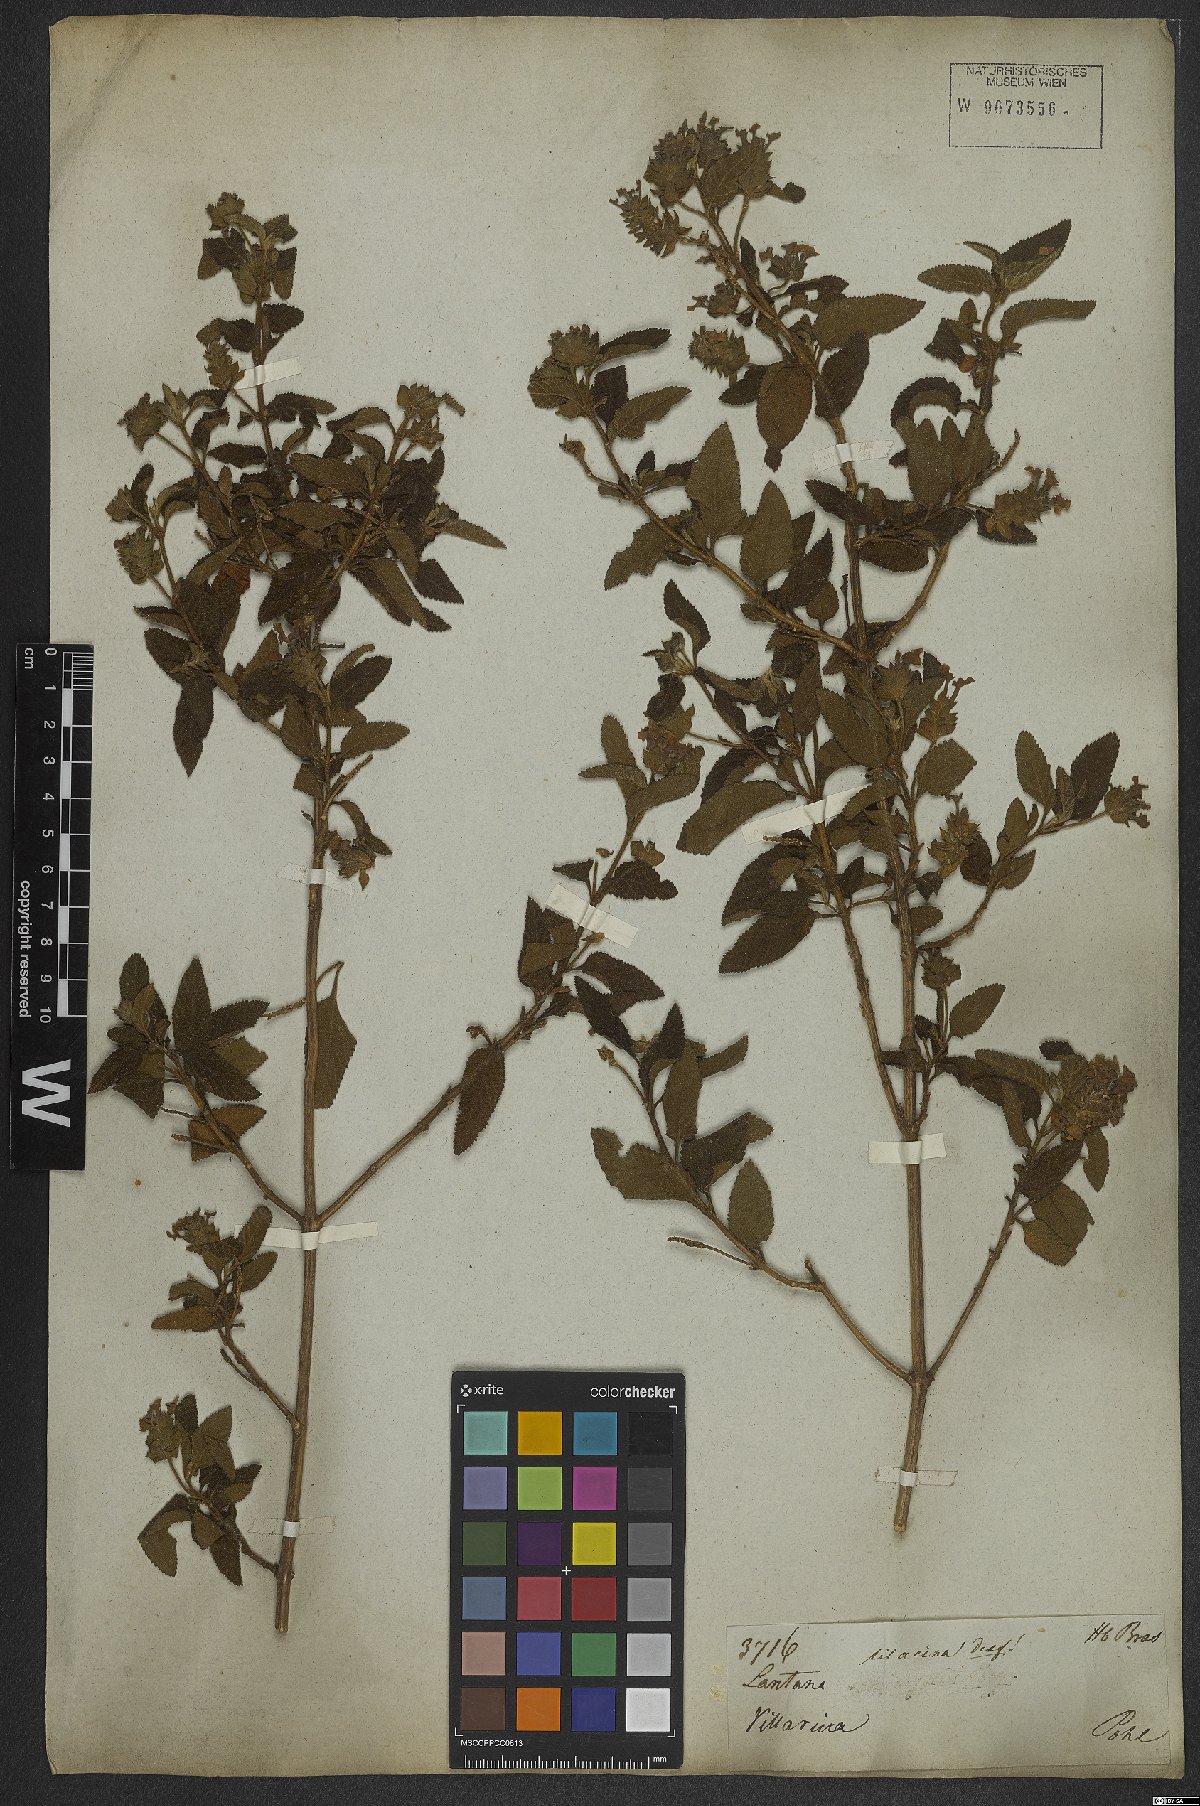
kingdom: Plantae
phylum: Tracheophyta
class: Magnoliopsida
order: Lamiales
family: Verbenaceae
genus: Lantana
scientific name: Lantana fucata
